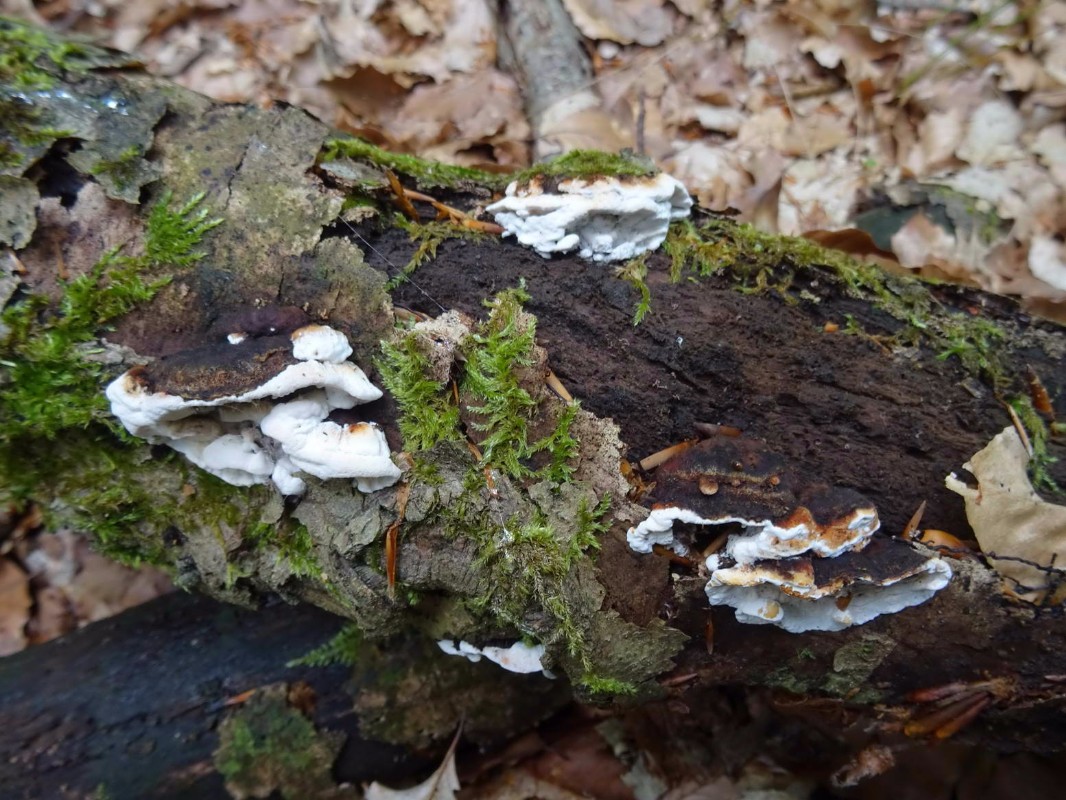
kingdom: Fungi
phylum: Basidiomycota
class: Agaricomycetes
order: Polyporales
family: Incrustoporiaceae
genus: Skeletocutis
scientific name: Skeletocutis nemoralis
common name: stor krystalporesvamp
